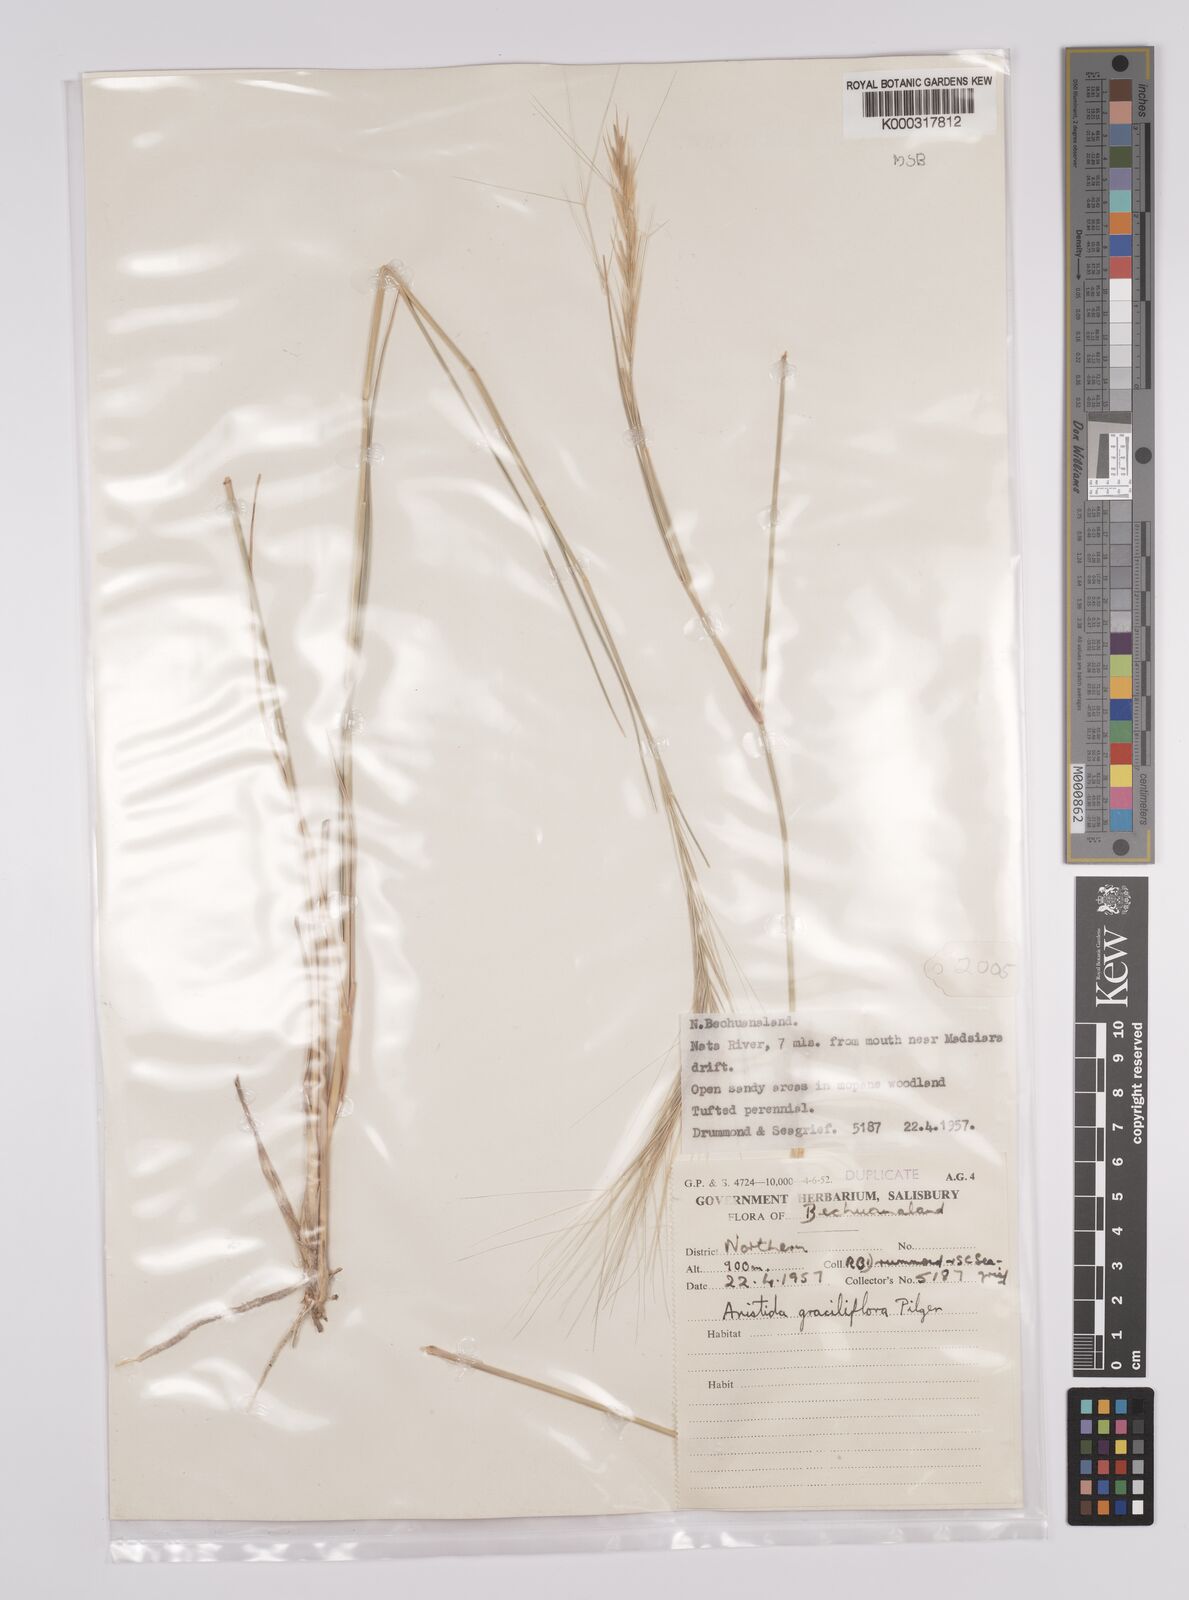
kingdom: Plantae
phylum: Tracheophyta
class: Liliopsida
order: Poales
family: Poaceae
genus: Aristida
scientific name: Aristida stipitata
